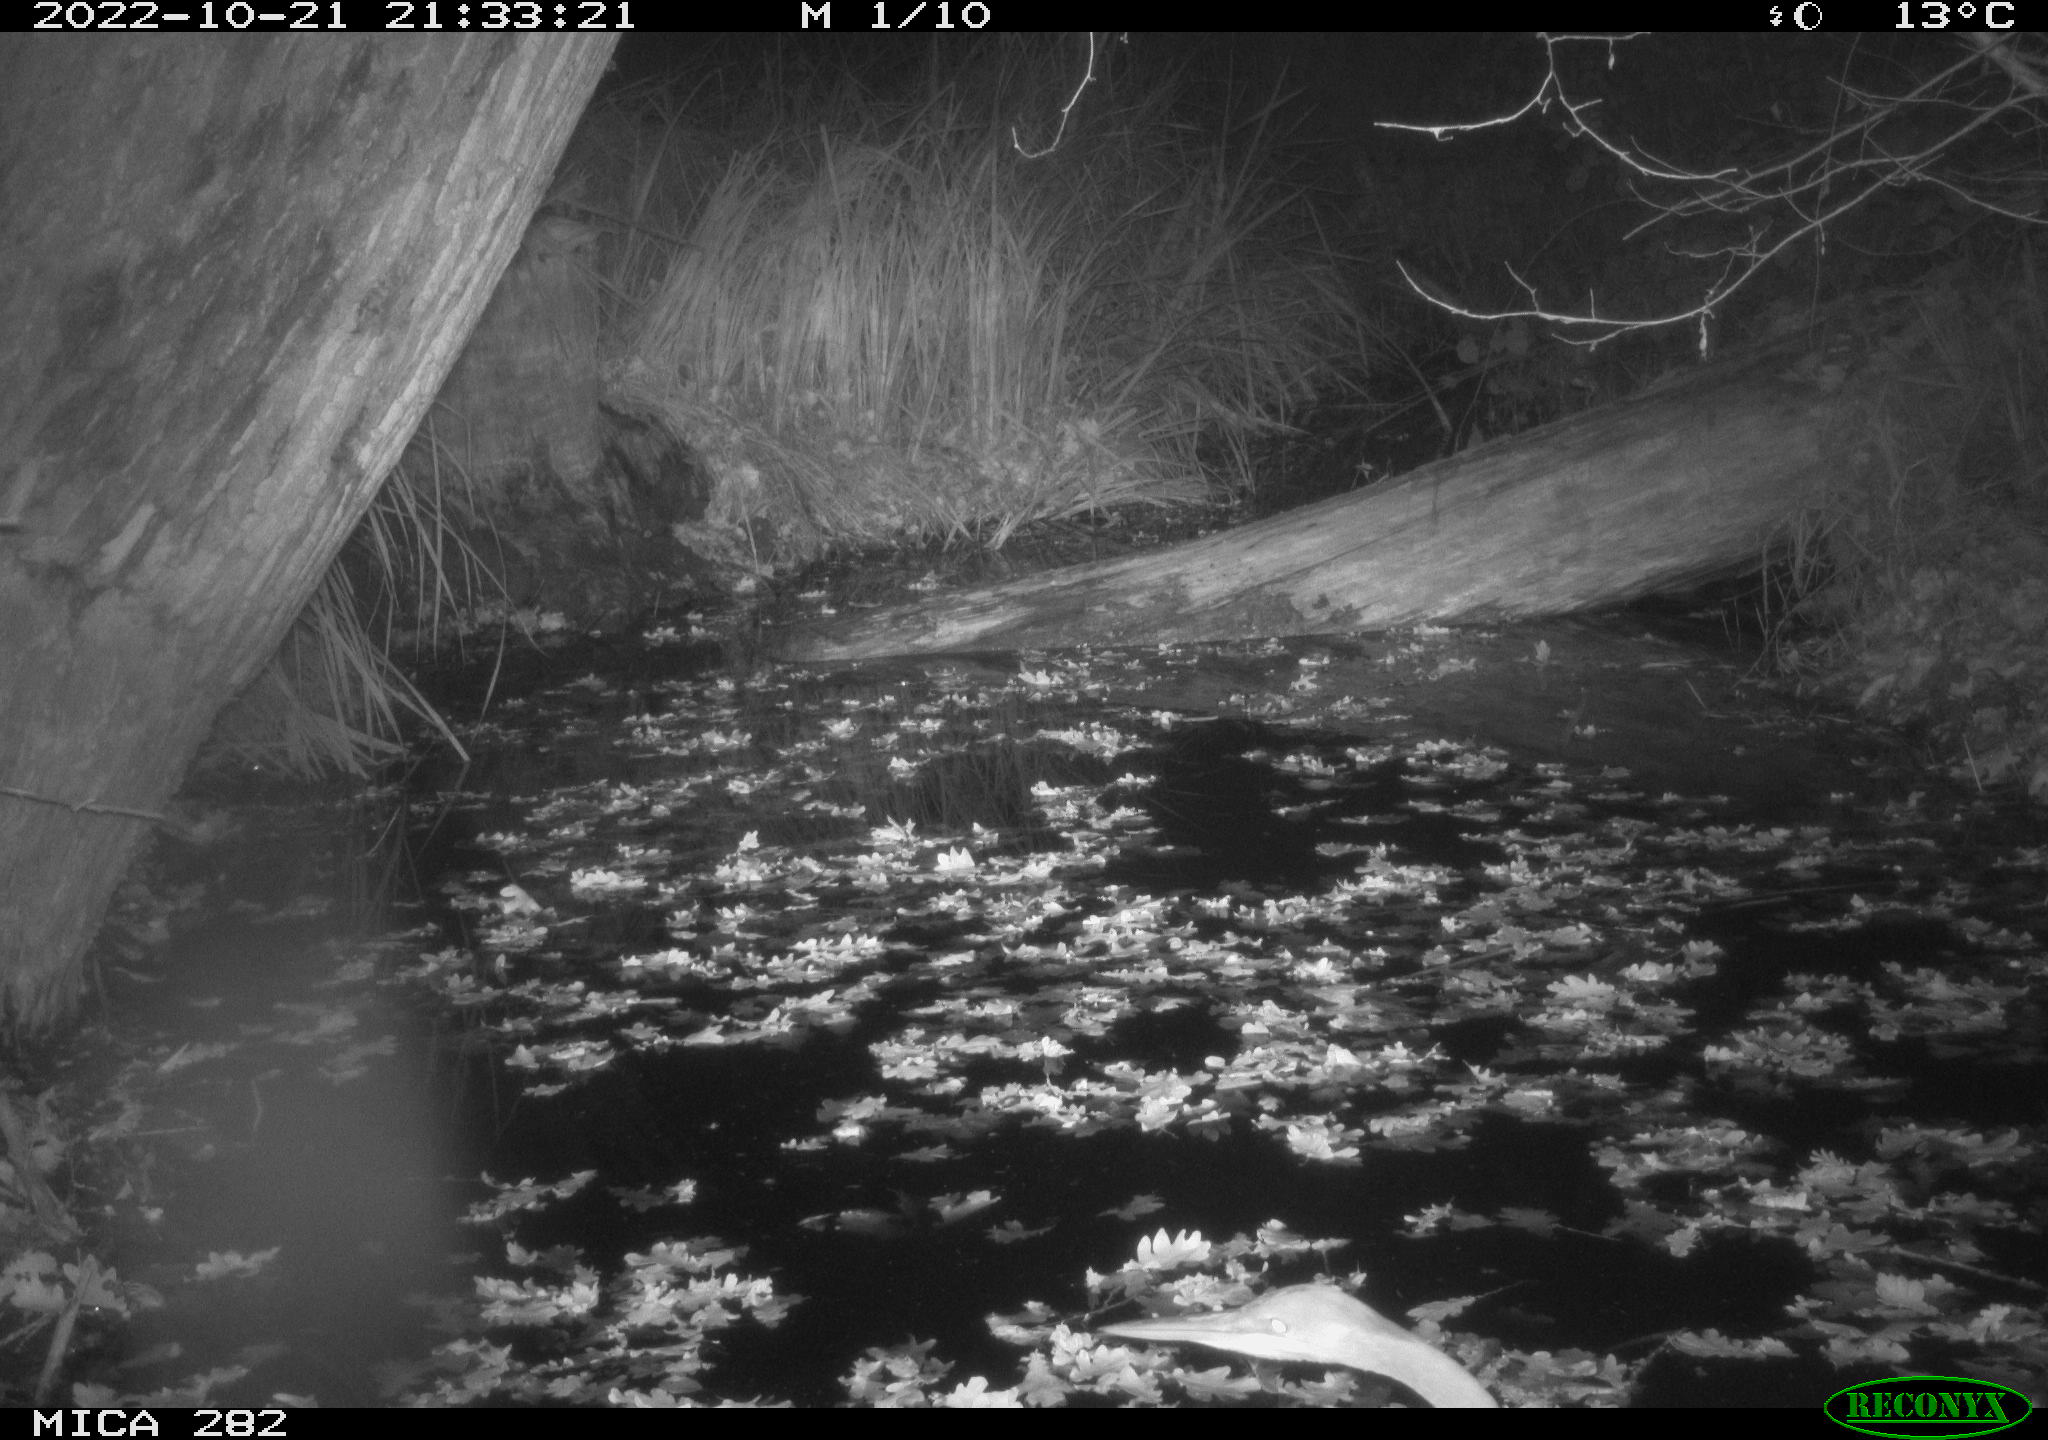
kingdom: Animalia
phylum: Chordata
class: Aves
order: Pelecaniformes
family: Ardeidae
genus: Ardea
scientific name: Ardea cinerea
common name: Grey heron
